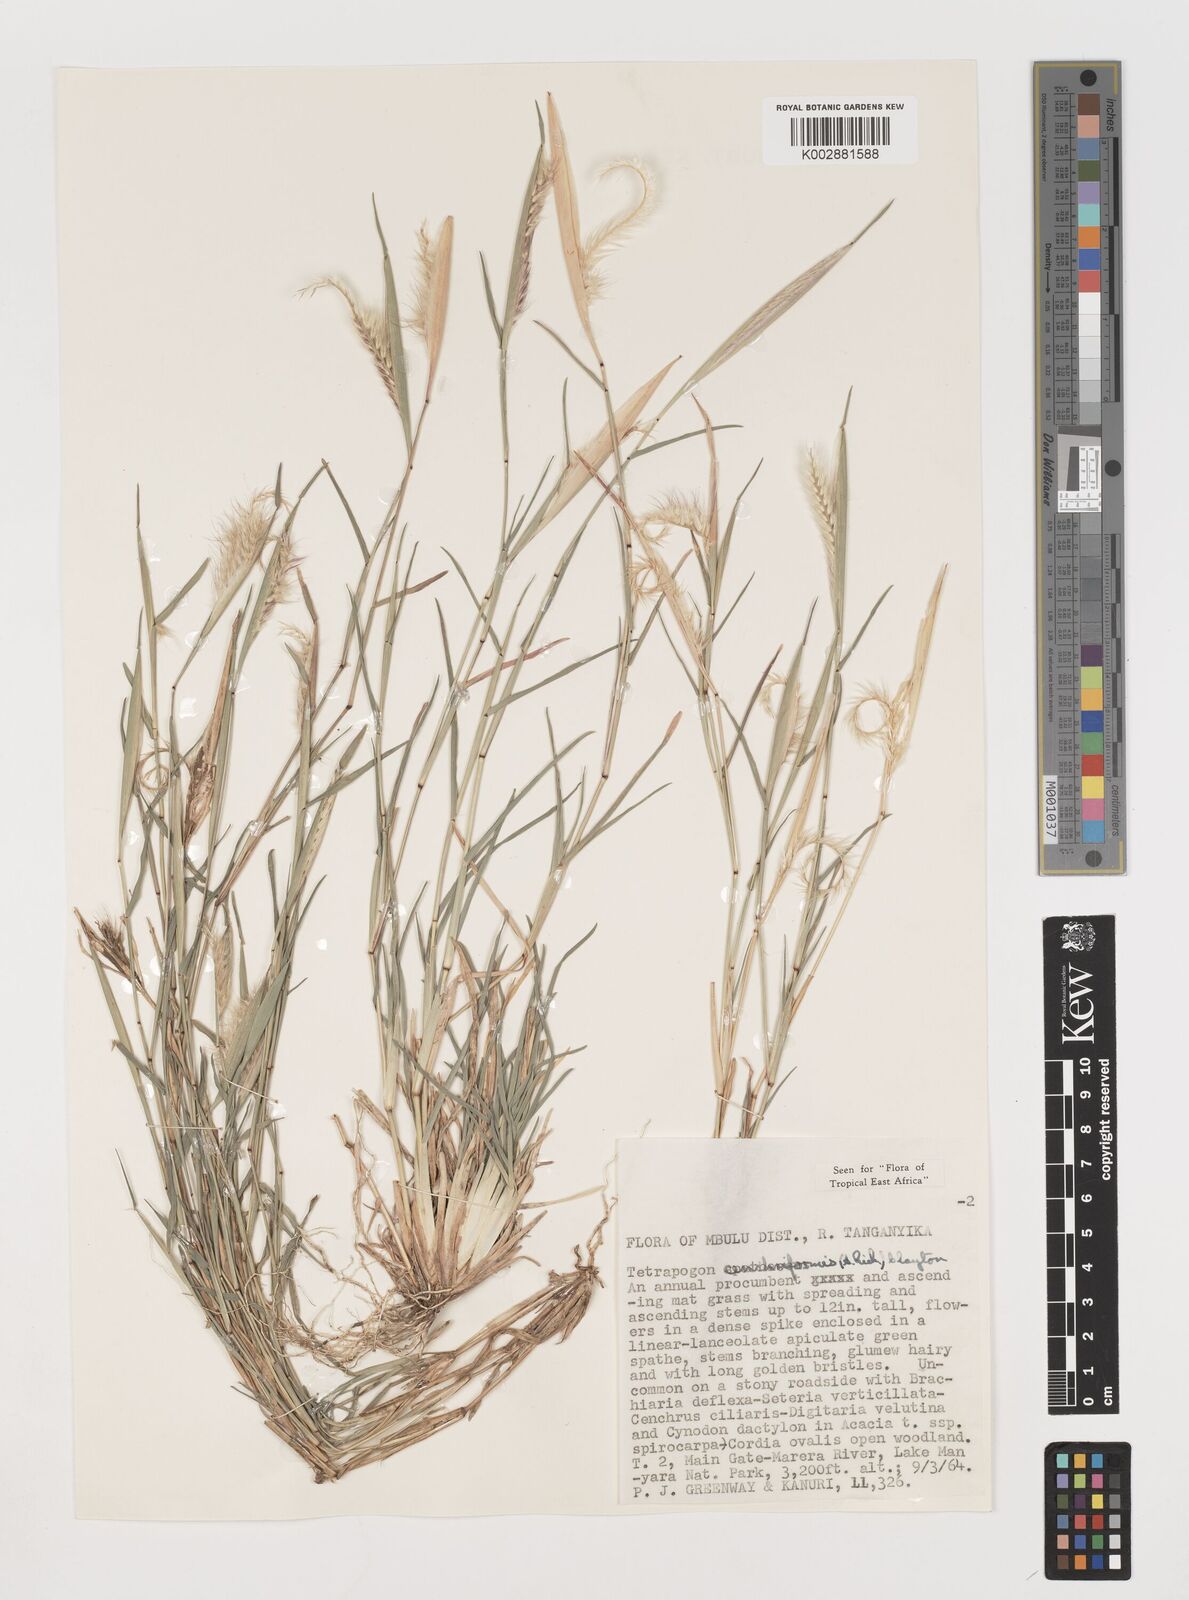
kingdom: Plantae
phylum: Tracheophyta
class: Liliopsida
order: Poales
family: Poaceae
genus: Tetrapogon
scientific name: Tetrapogon cenchriformis
